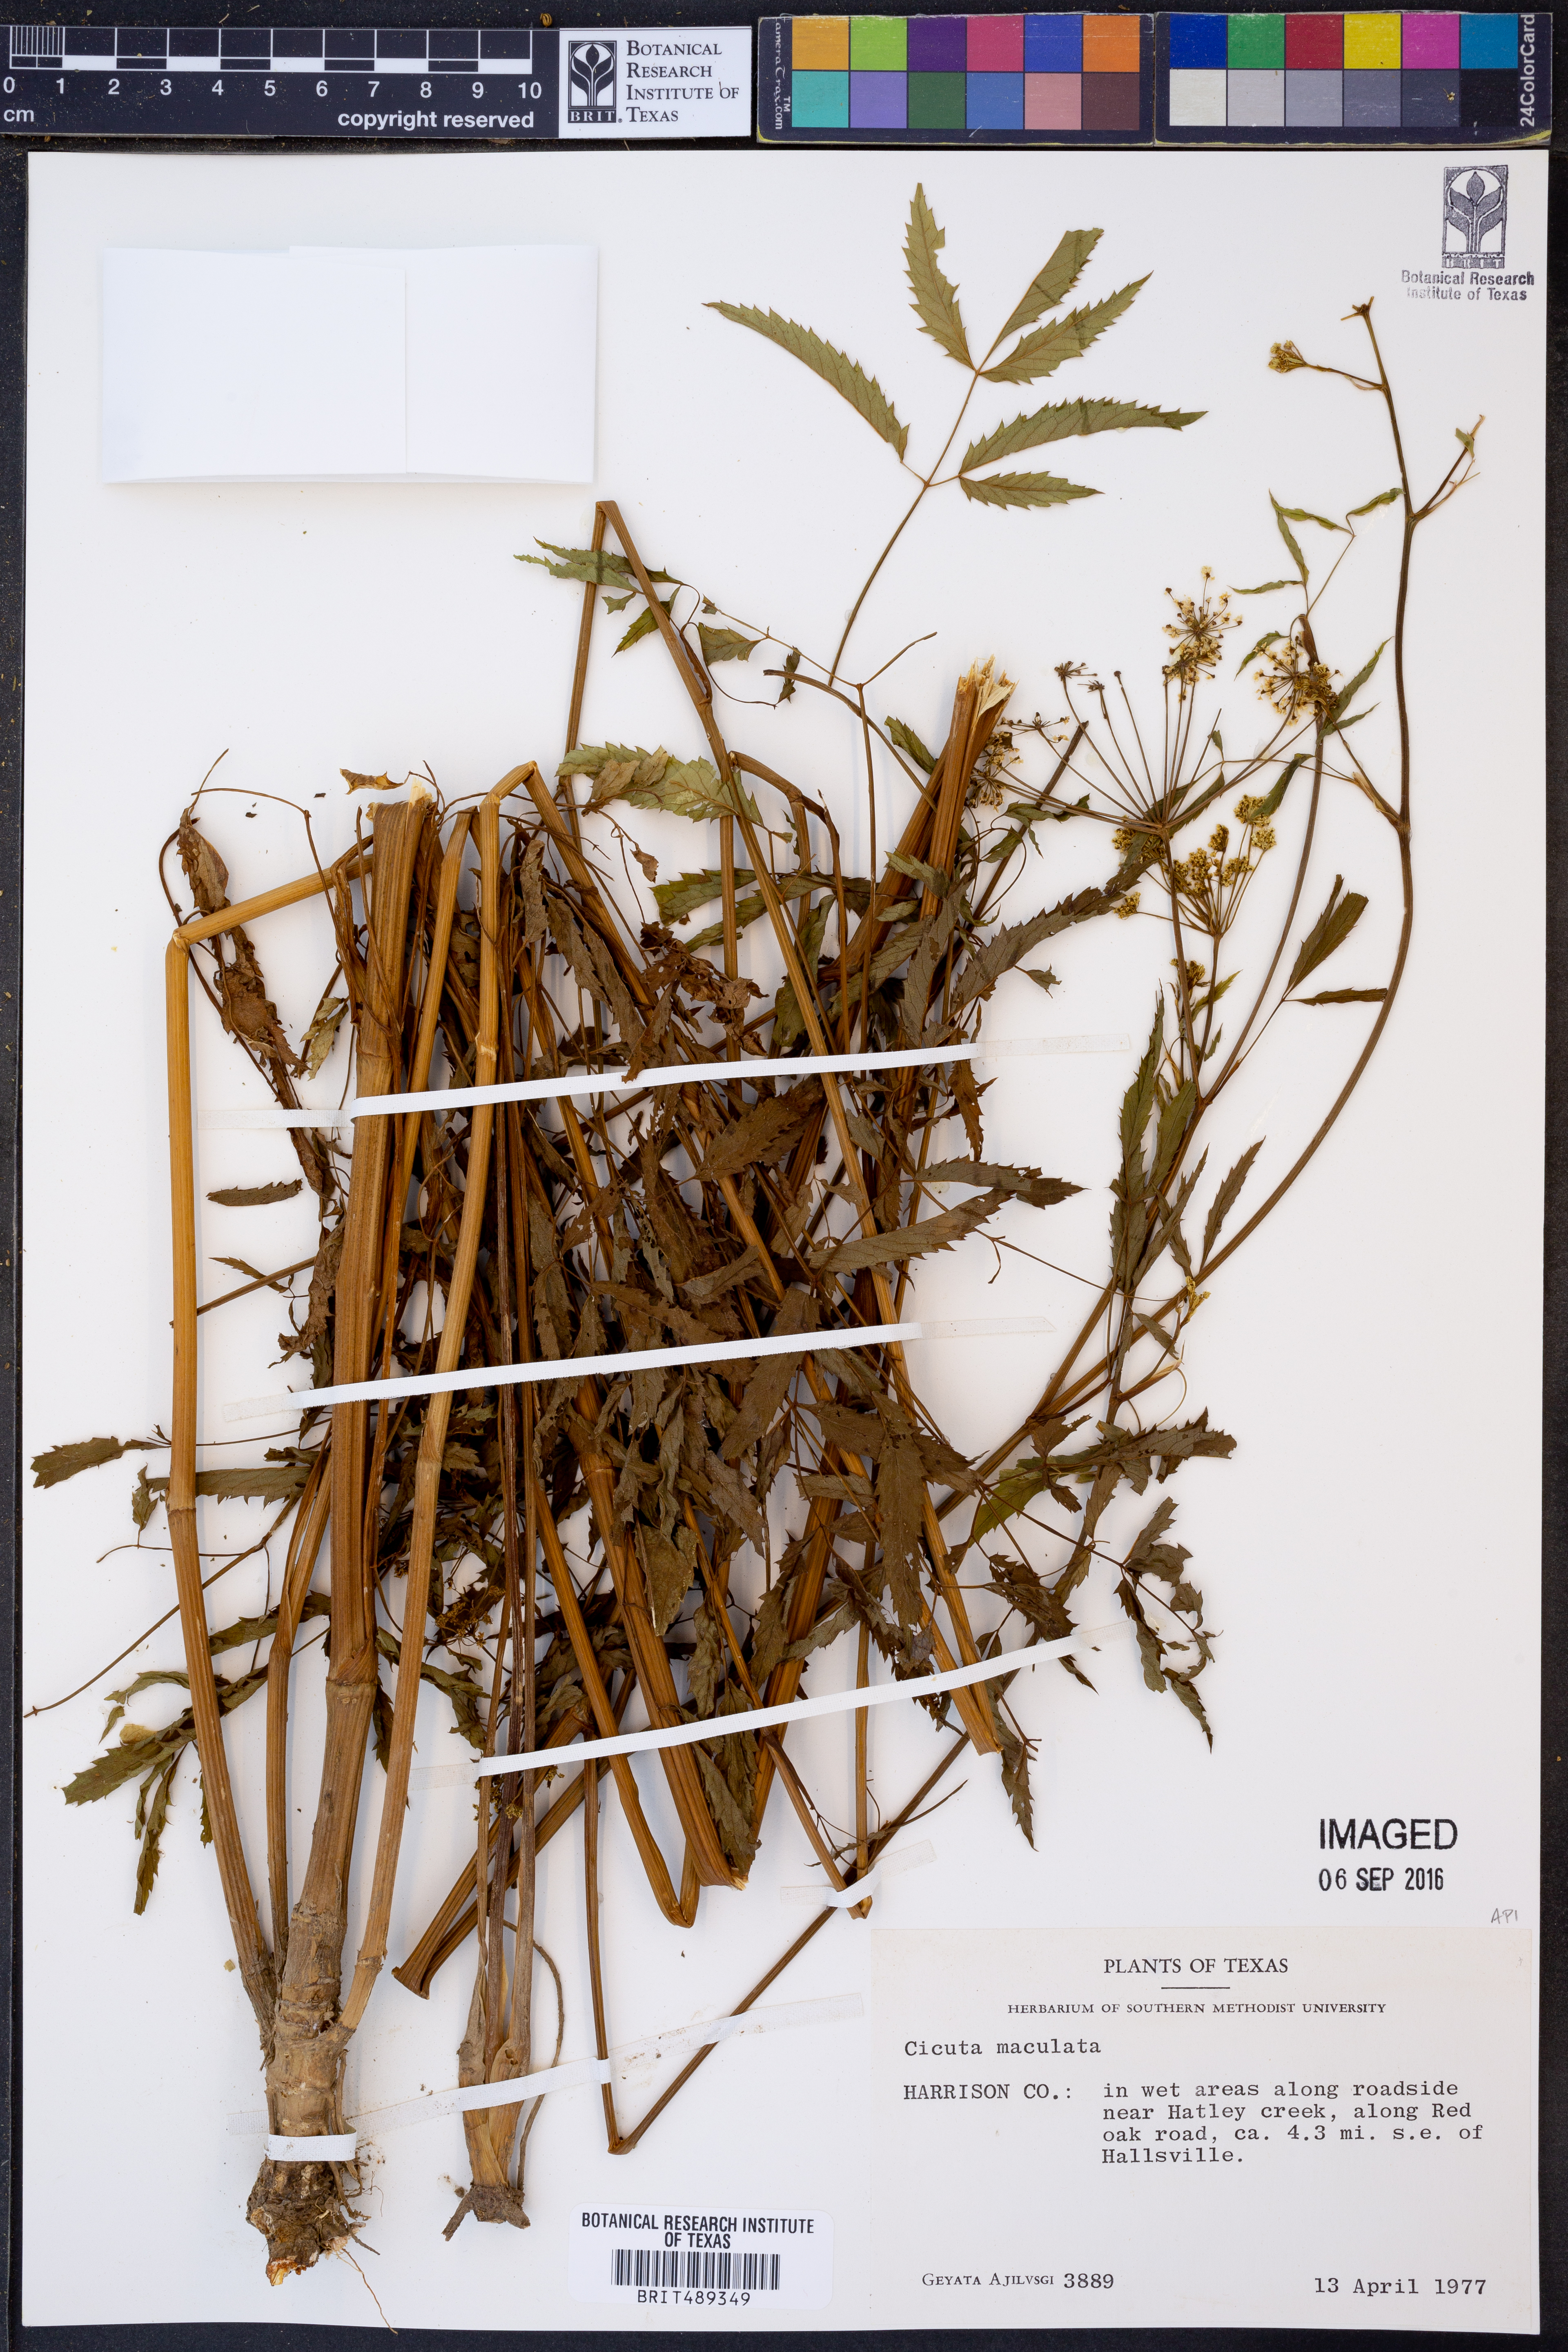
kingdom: Plantae
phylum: Tracheophyta
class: Magnoliopsida
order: Apiales
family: Apiaceae
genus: Cicuta
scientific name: Cicuta maculata
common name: Spotted cowbane
